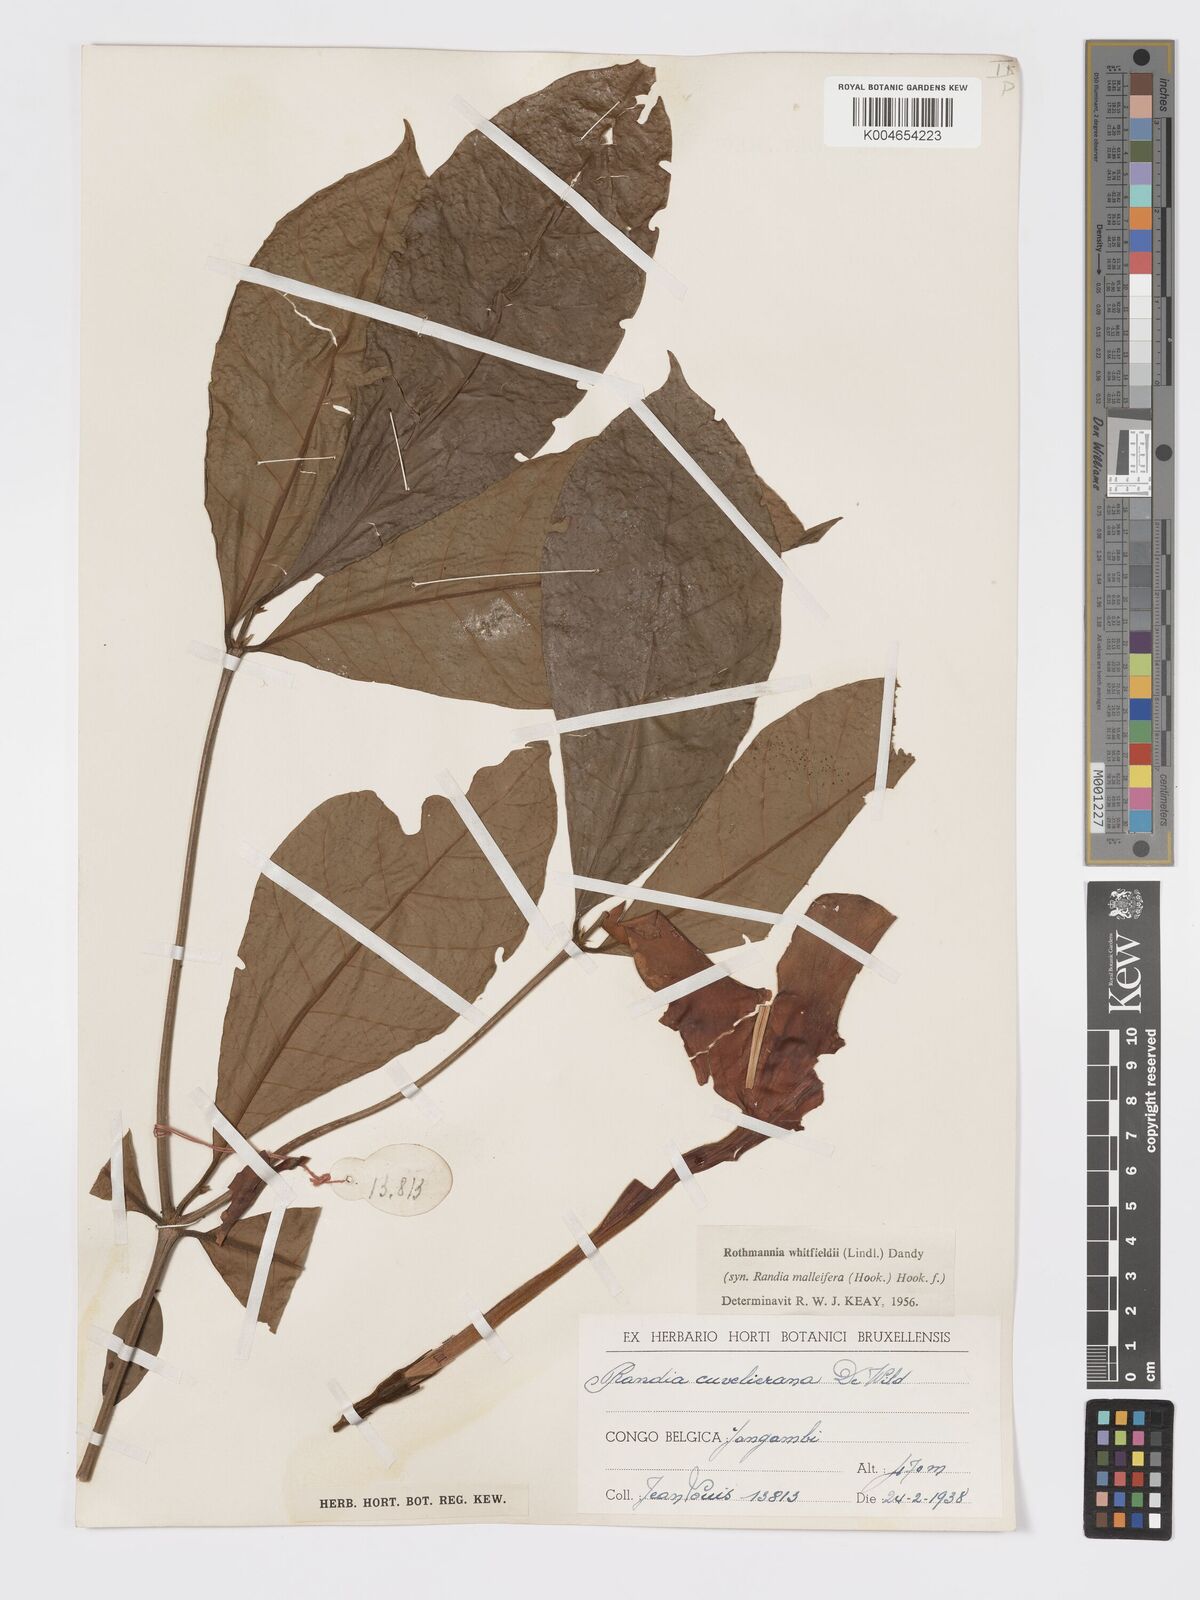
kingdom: Plantae
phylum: Tracheophyta
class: Magnoliopsida
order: Gentianales
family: Rubiaceae
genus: Rothmannia
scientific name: Rothmannia whitfieldii
